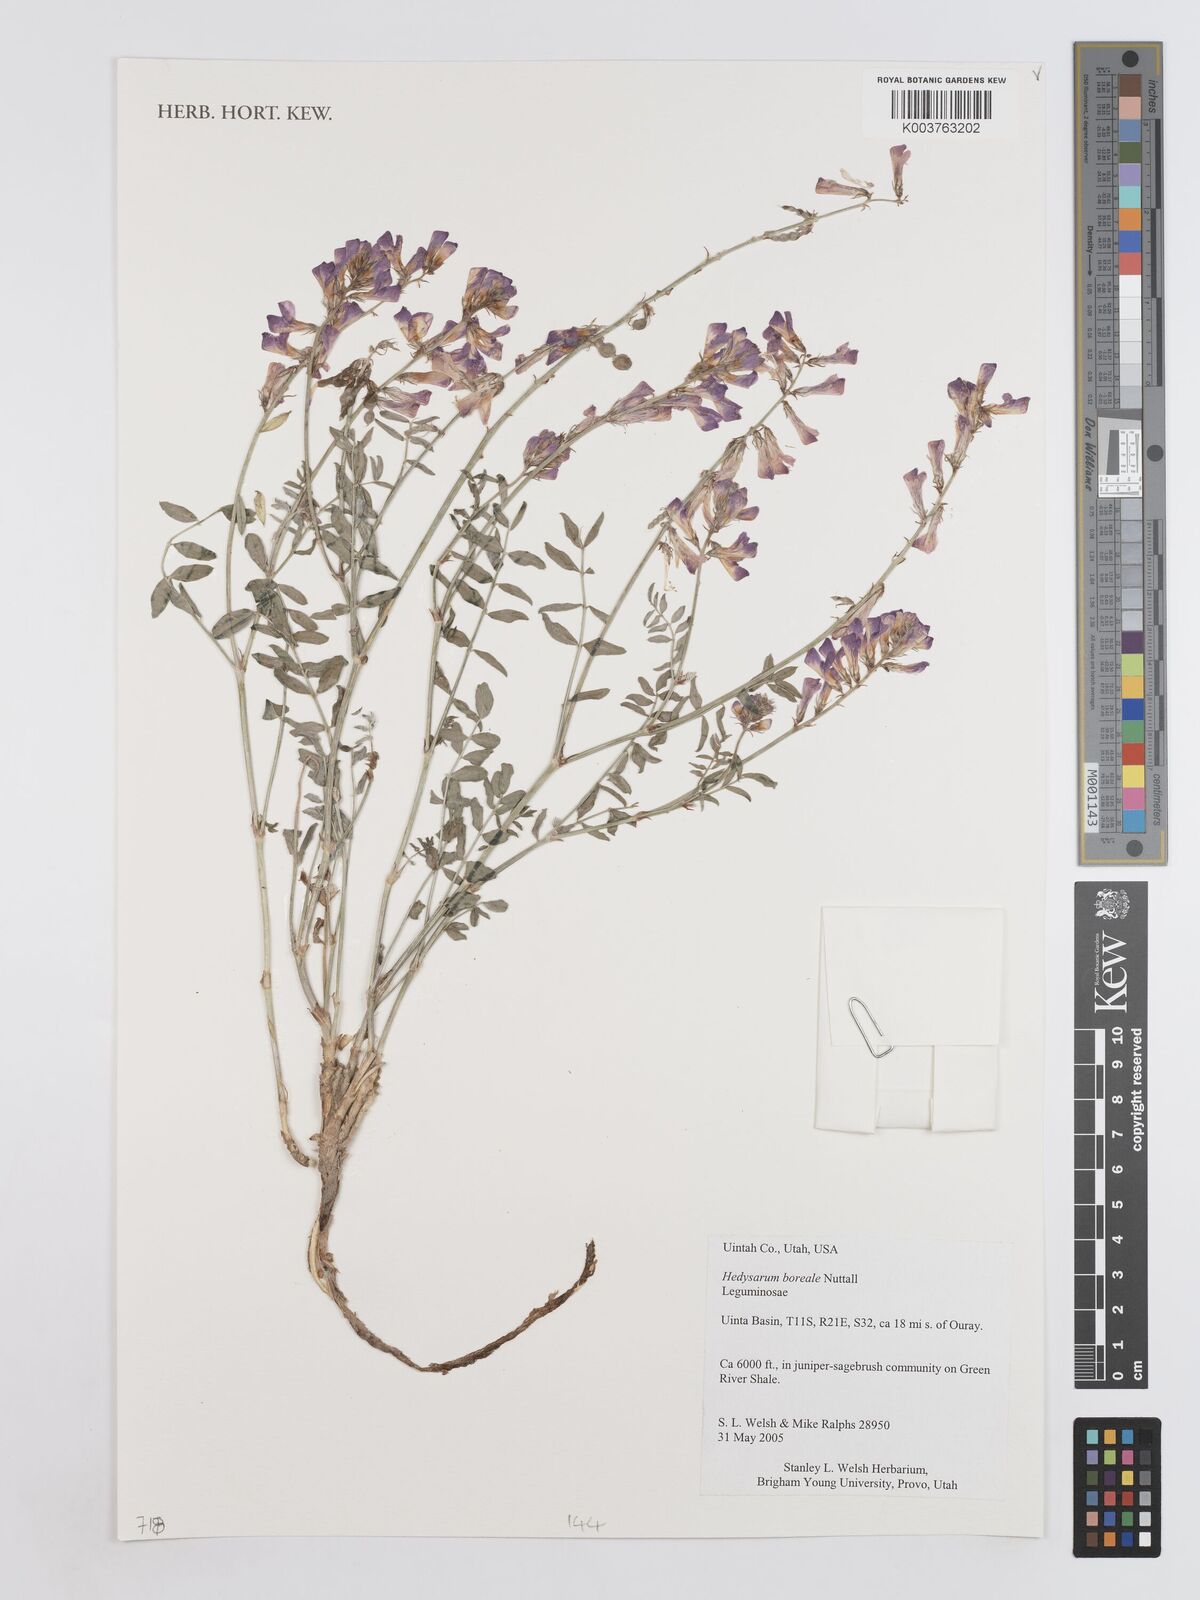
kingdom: Plantae
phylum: Tracheophyta
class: Magnoliopsida
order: Fabales
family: Fabaceae
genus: Hedysarum
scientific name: Hedysarum boreale
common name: Northern sweet-vetch
